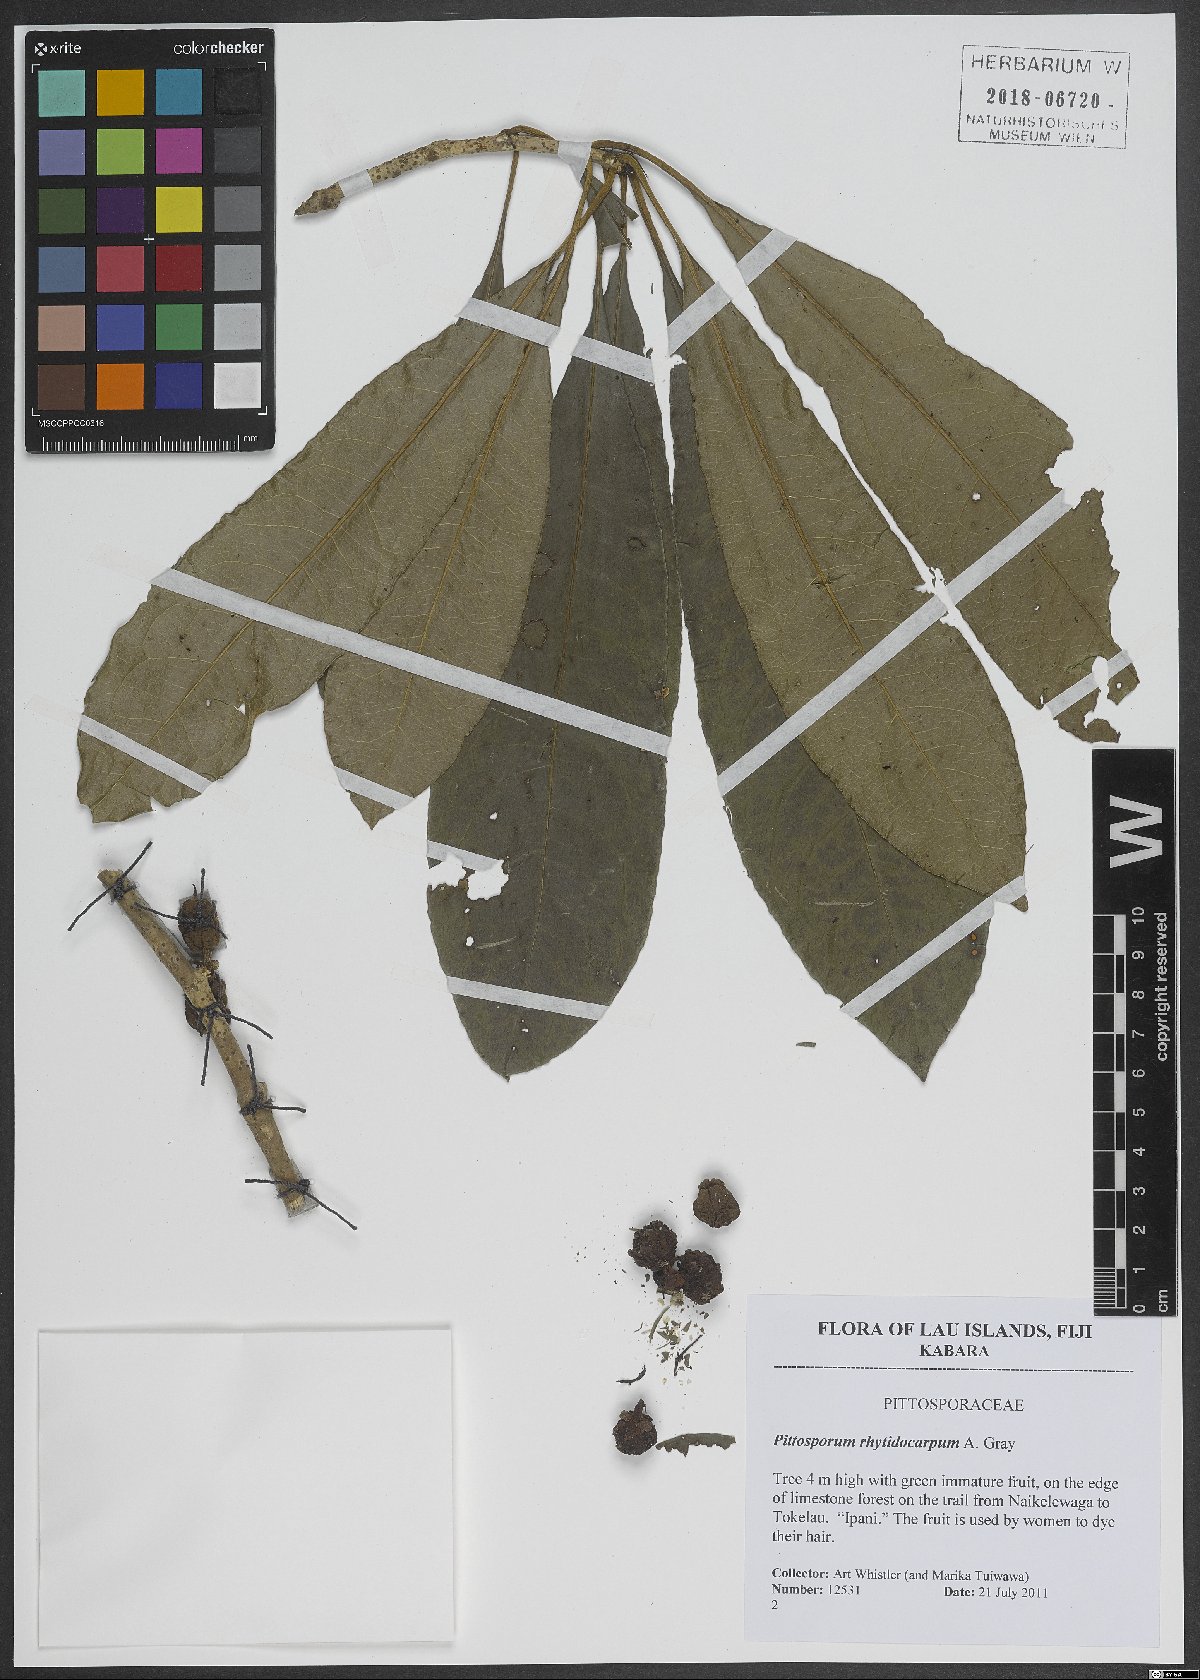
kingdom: Plantae
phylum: Tracheophyta
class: Magnoliopsida
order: Apiales
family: Pittosporaceae
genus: Pittosporum
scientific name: Pittosporum rhytidocarpum
